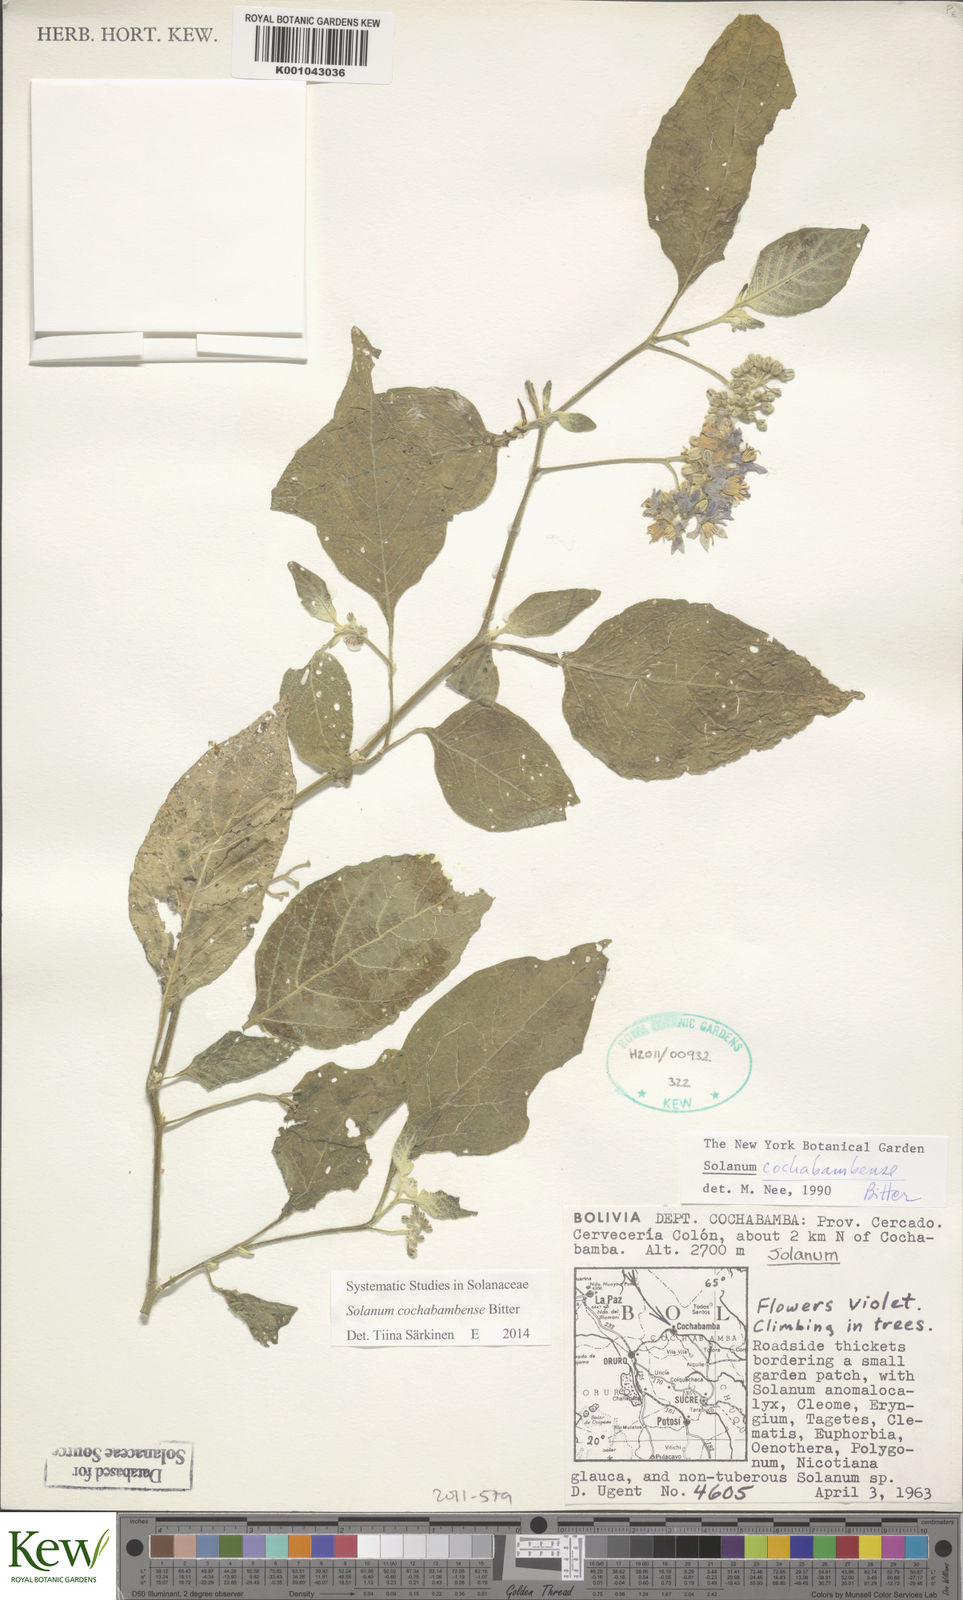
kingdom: Plantae
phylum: Tracheophyta
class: Magnoliopsida
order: Solanales
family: Solanaceae
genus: Solanum
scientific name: Solanum probolospermum
